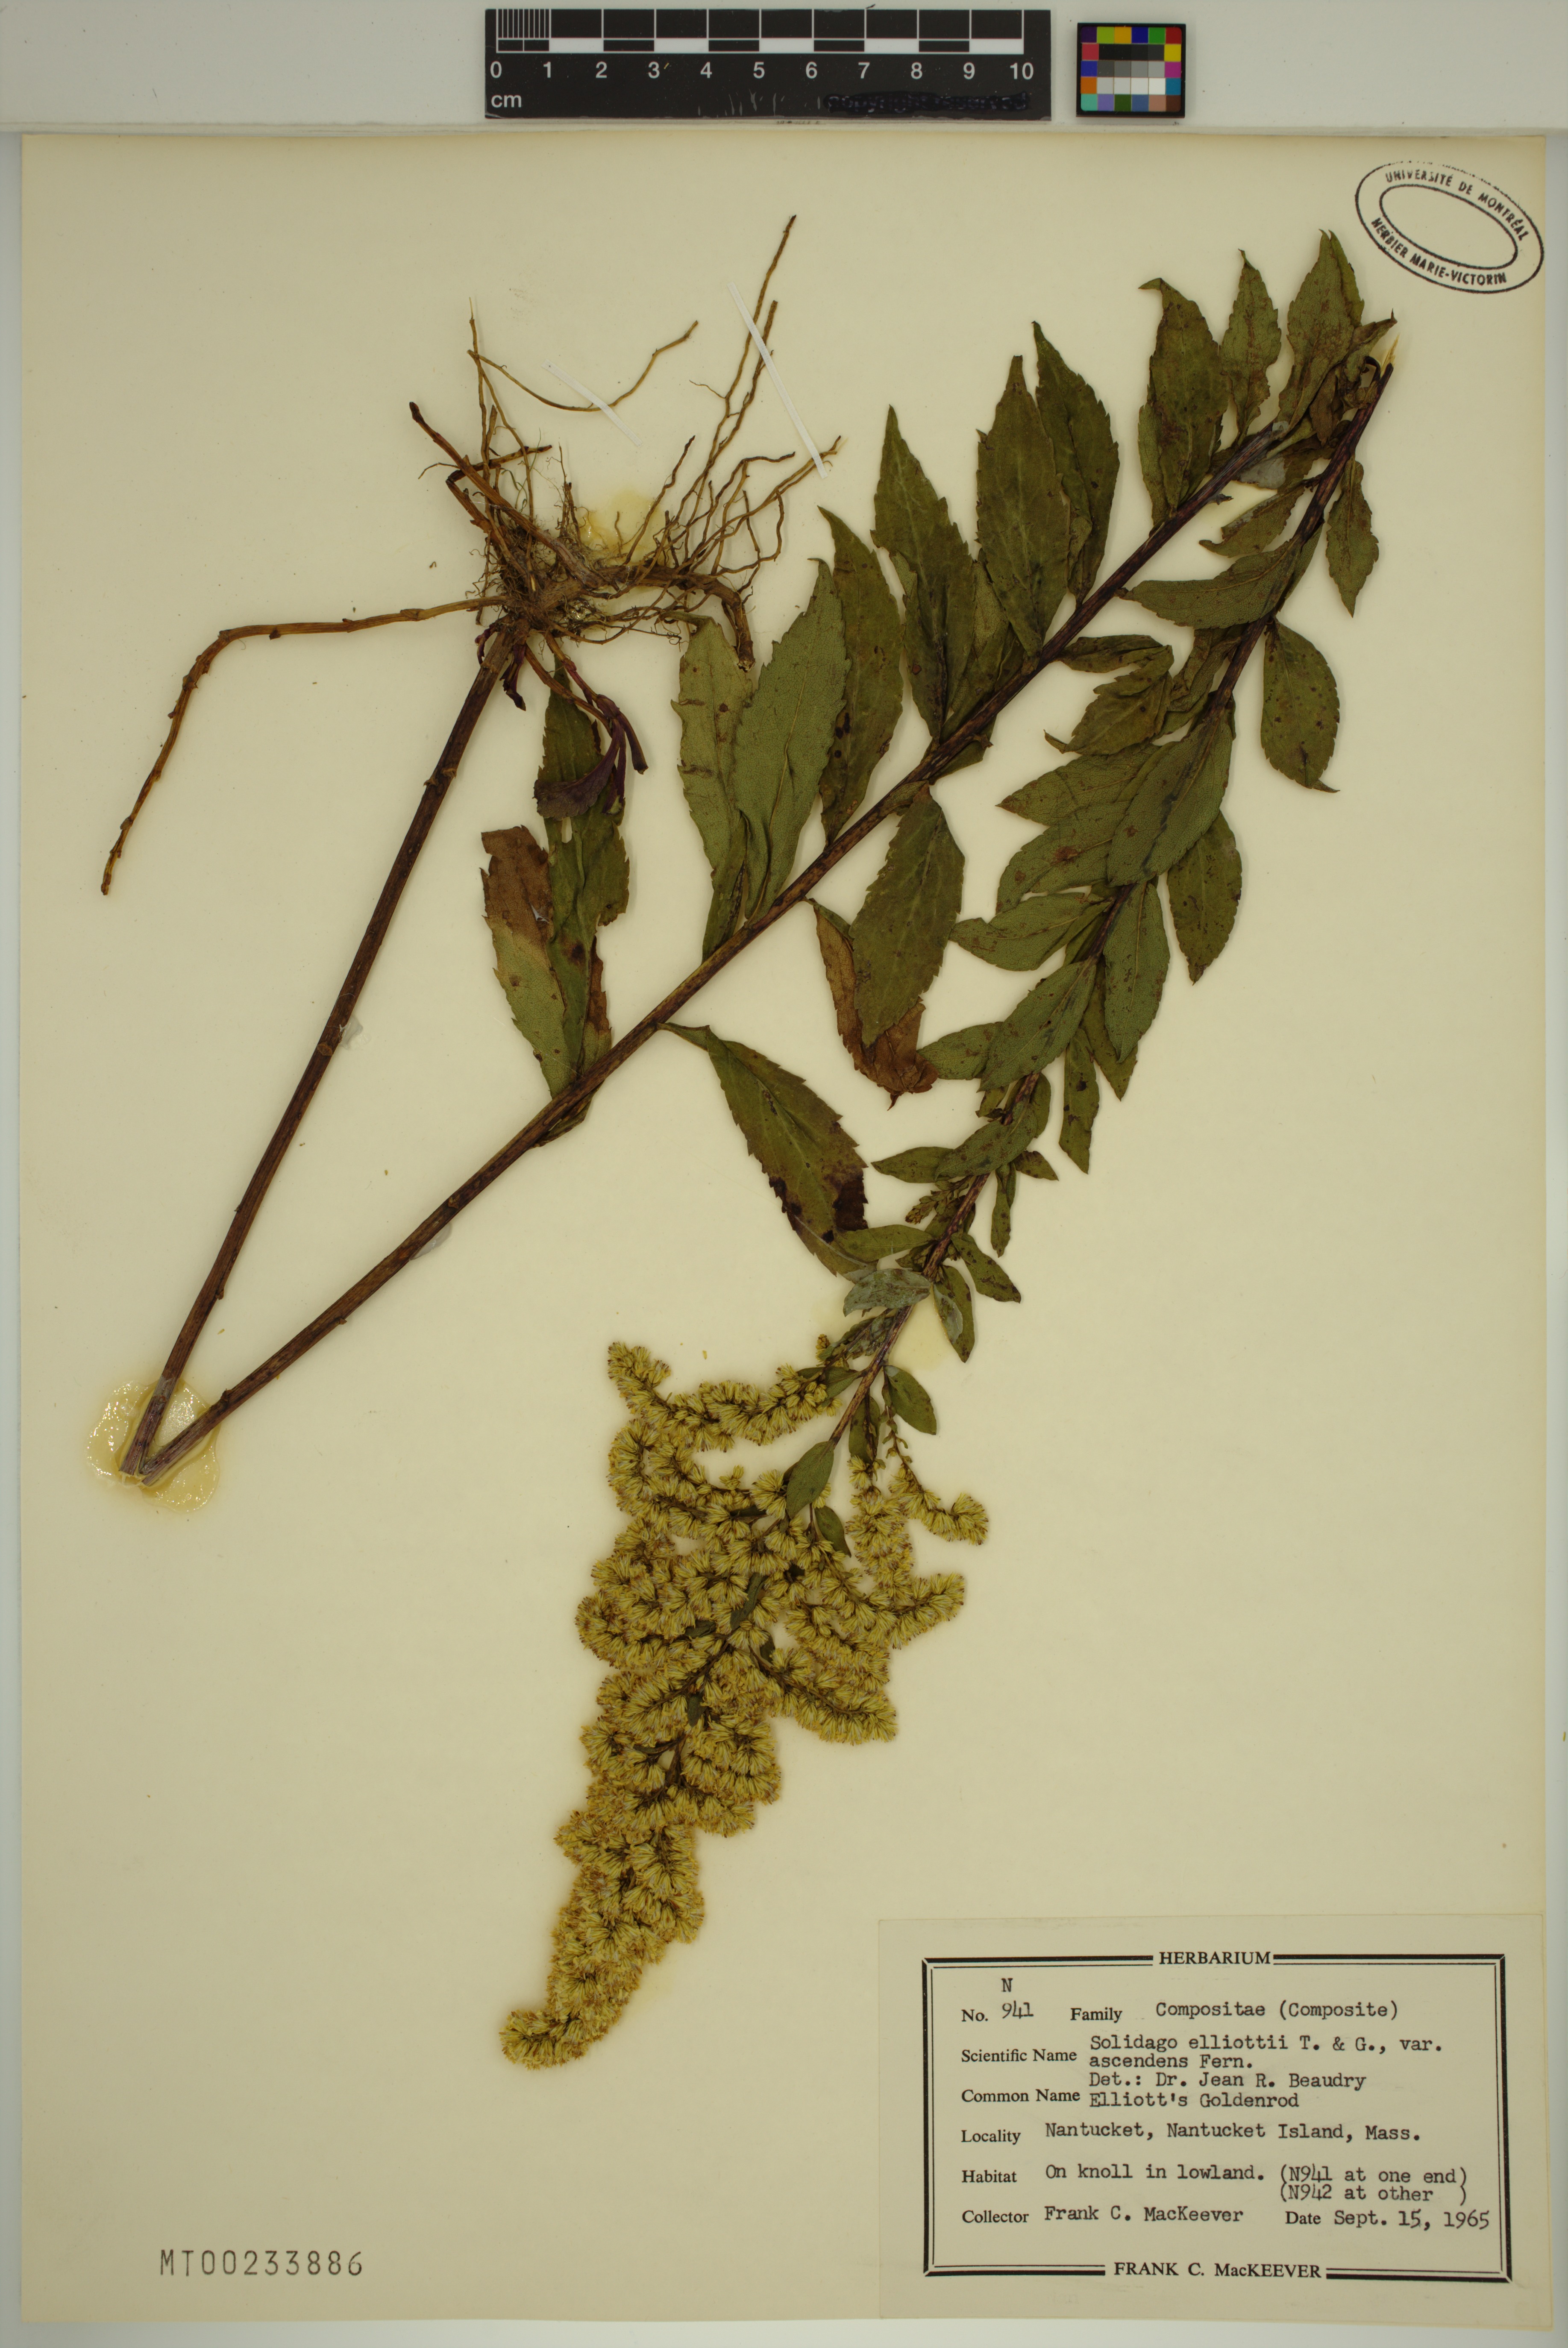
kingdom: Plantae
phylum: Tracheophyta
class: Magnoliopsida
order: Asterales
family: Asteraceae
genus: Solidago
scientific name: Solidago latissimifolia
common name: Elliott's goldenrod
